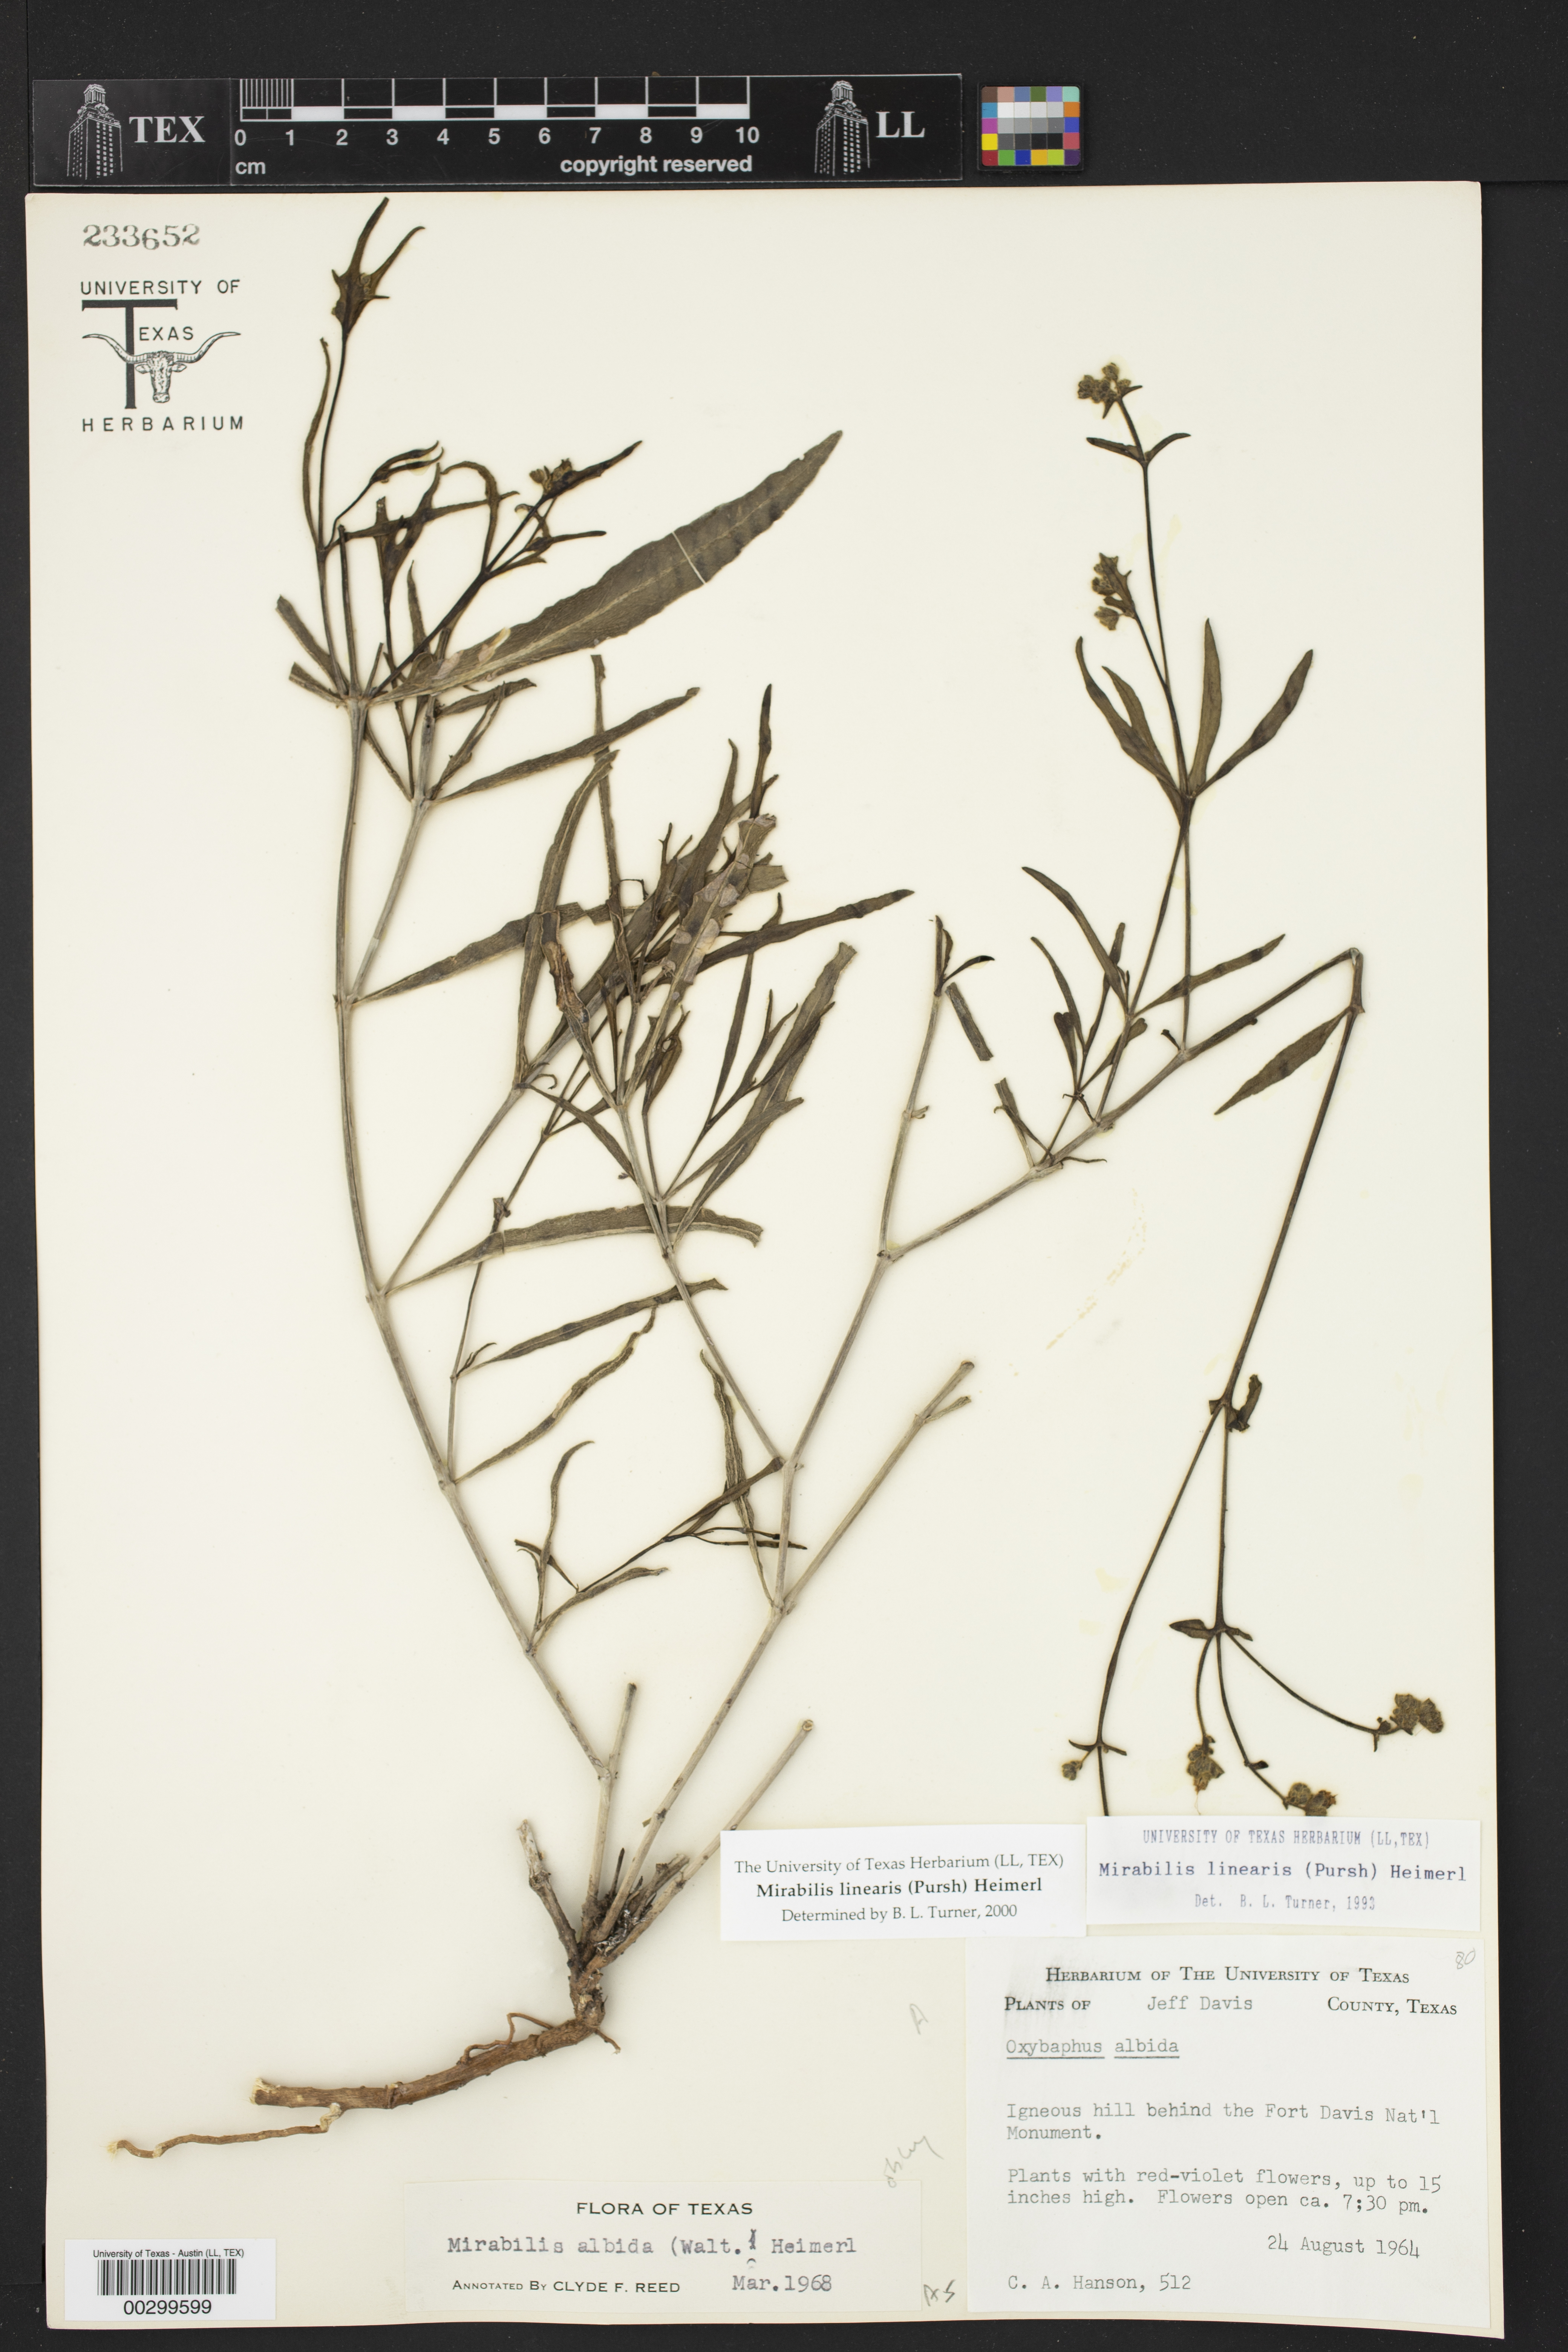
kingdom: Plantae
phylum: Tracheophyta
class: Magnoliopsida
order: Caryophyllales
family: Nyctaginaceae
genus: Mirabilis
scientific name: Mirabilis linearis
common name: Linear-leaved four-o'clock
